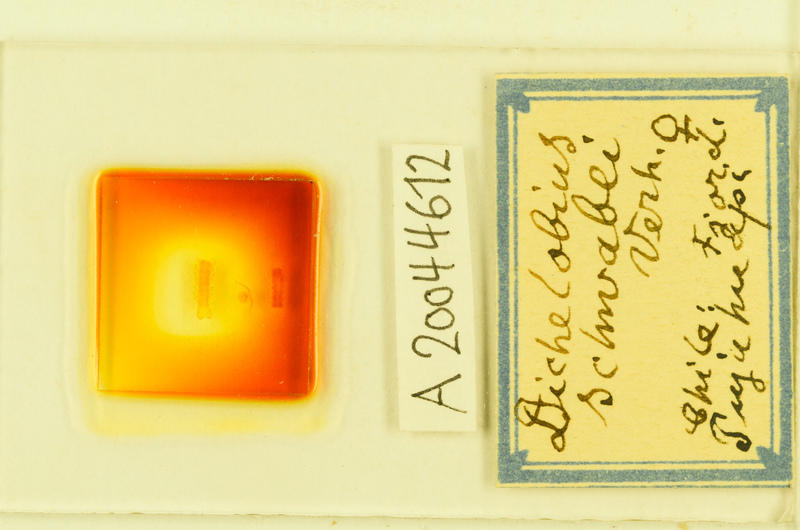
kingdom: Animalia
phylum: Arthropoda
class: Chilopoda
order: Lithobiomorpha
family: Henicopidae
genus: Anopsobius
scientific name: Anopsobius schwabei
